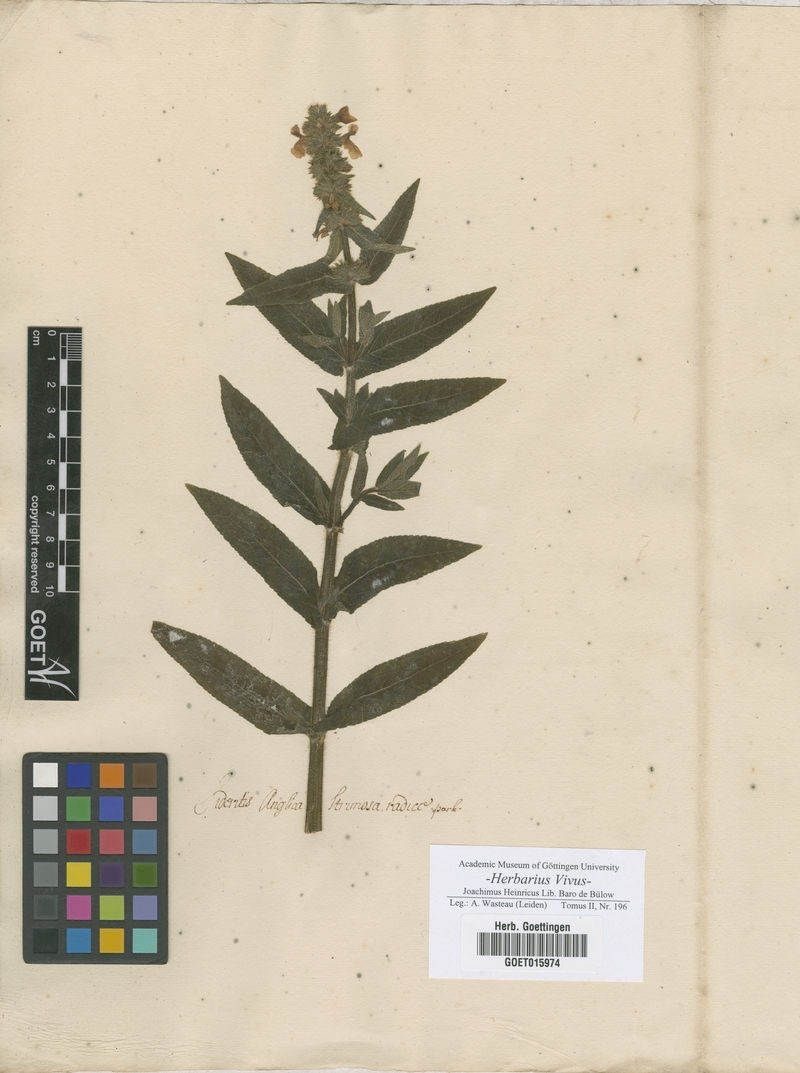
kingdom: Plantae
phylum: Tracheophyta
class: Magnoliopsida
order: Lamiales
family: Lamiaceae
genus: Sideritis
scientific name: Sideritis
